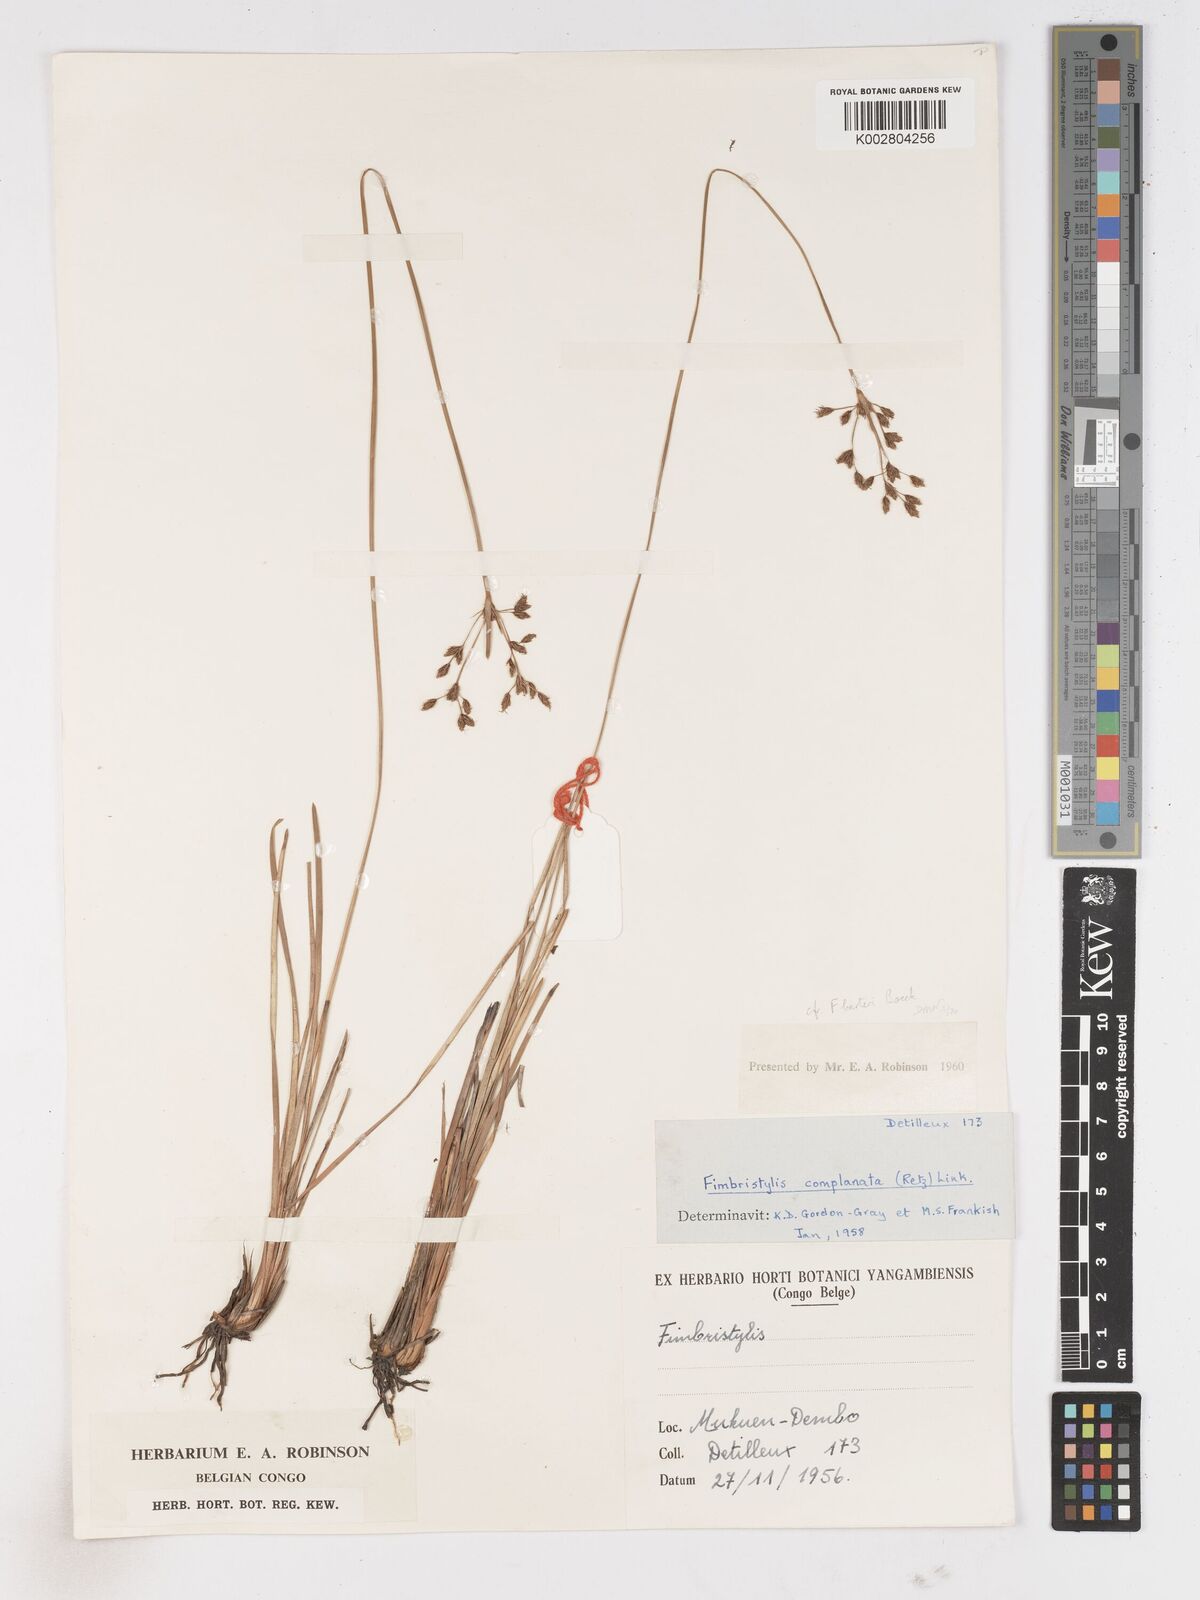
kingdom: Plantae
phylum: Tracheophyta
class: Liliopsida
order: Poales
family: Cyperaceae
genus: Fimbristylis
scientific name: Fimbristylis complanata
